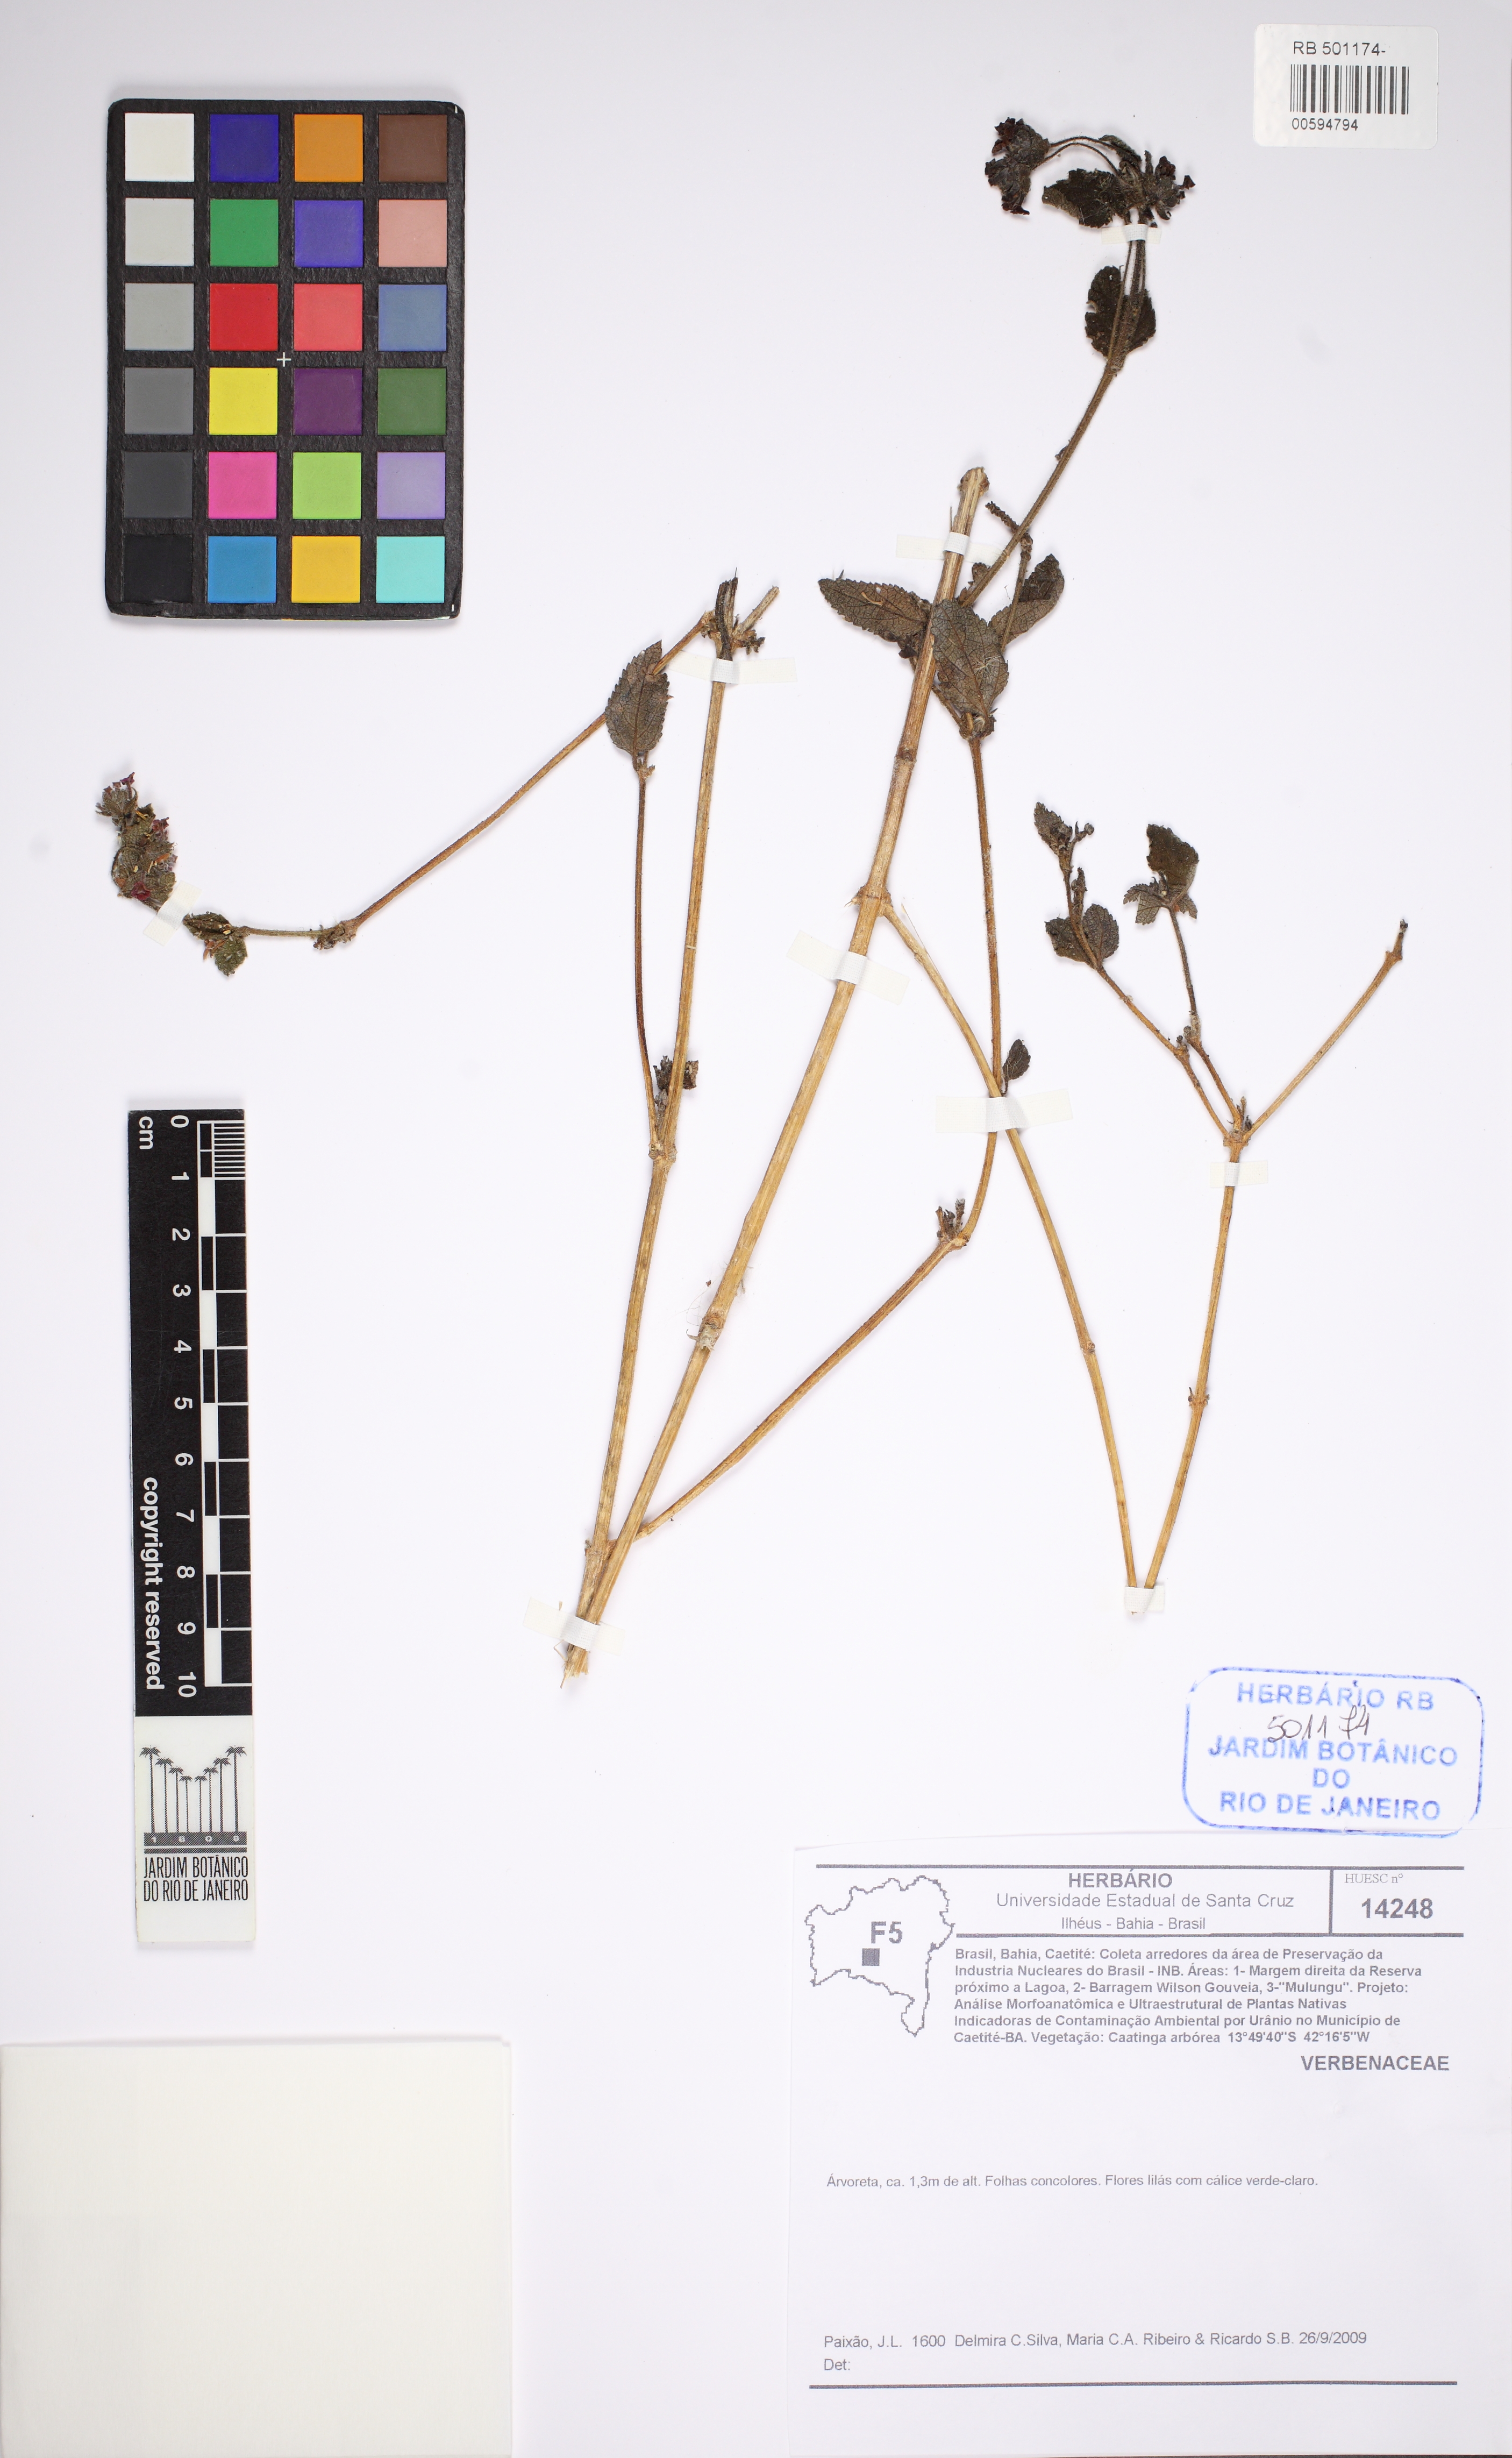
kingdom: Plantae
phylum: Tracheophyta
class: Magnoliopsida
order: Lamiales
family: Verbenaceae
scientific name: Verbenaceae
